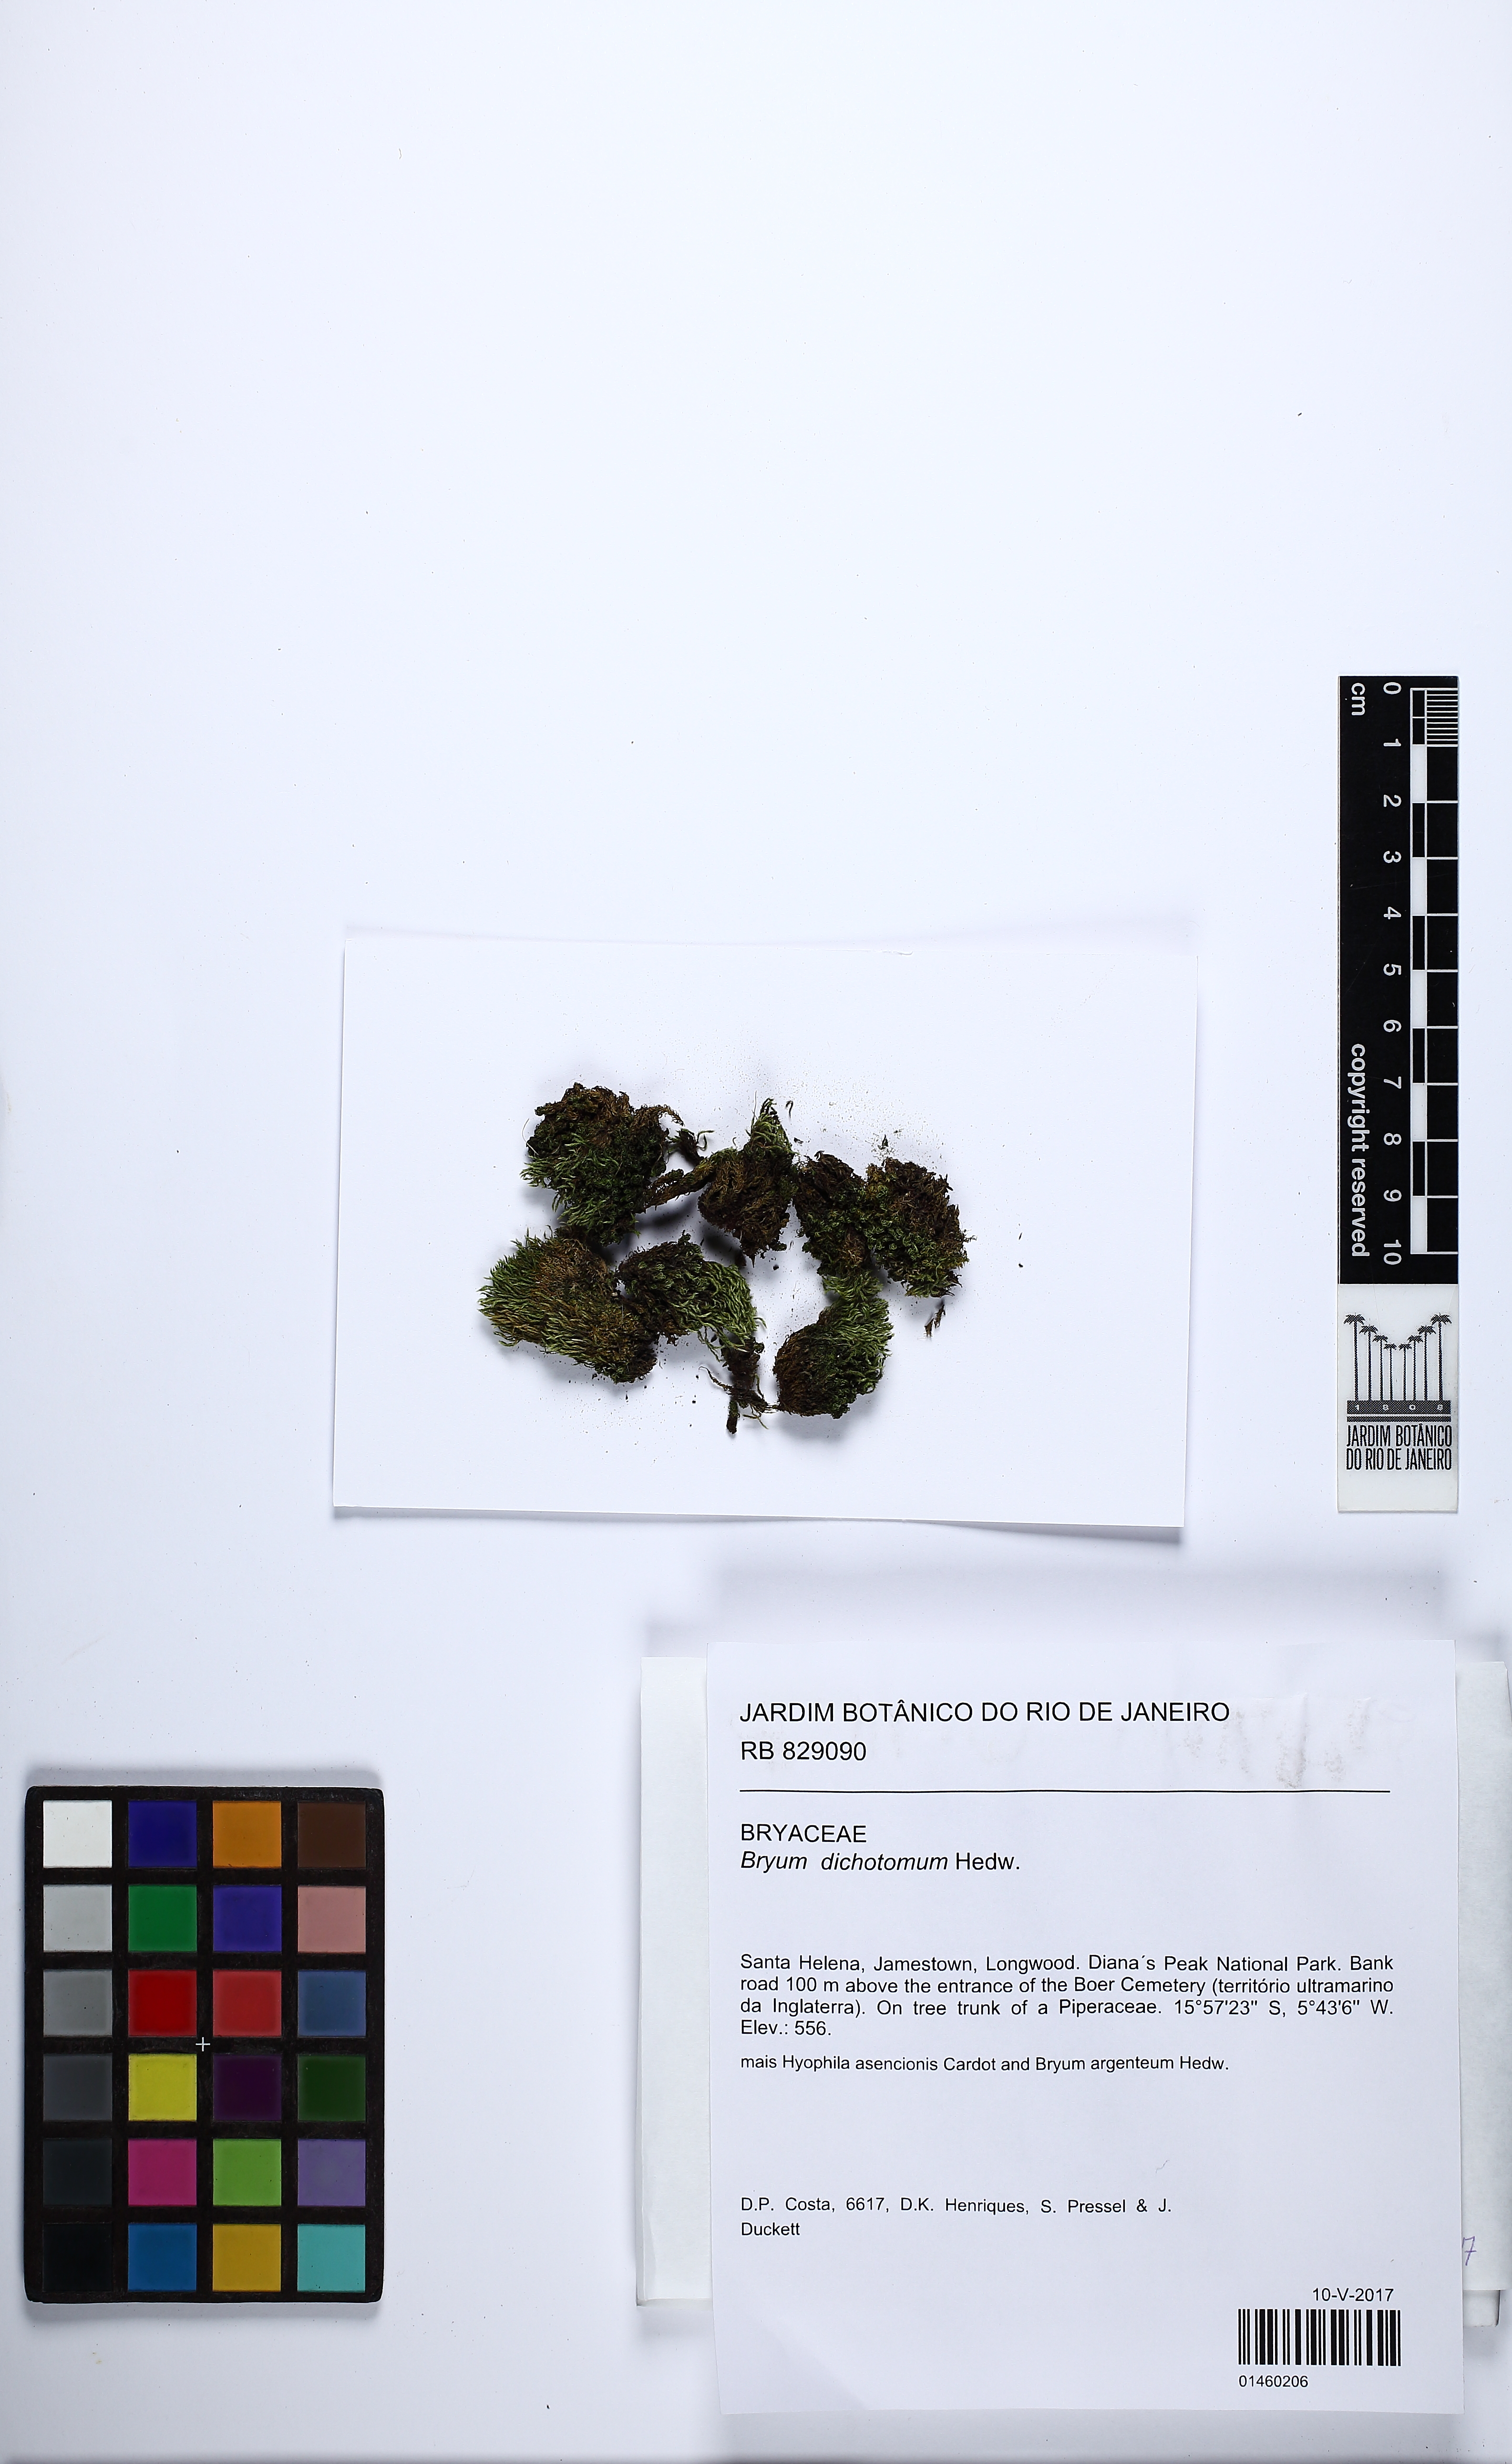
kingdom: Plantae
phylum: Bryophyta
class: Bryopsida
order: Bryales
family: Bryaceae
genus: Gemmabryum
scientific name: Gemmabryum dichotomum
